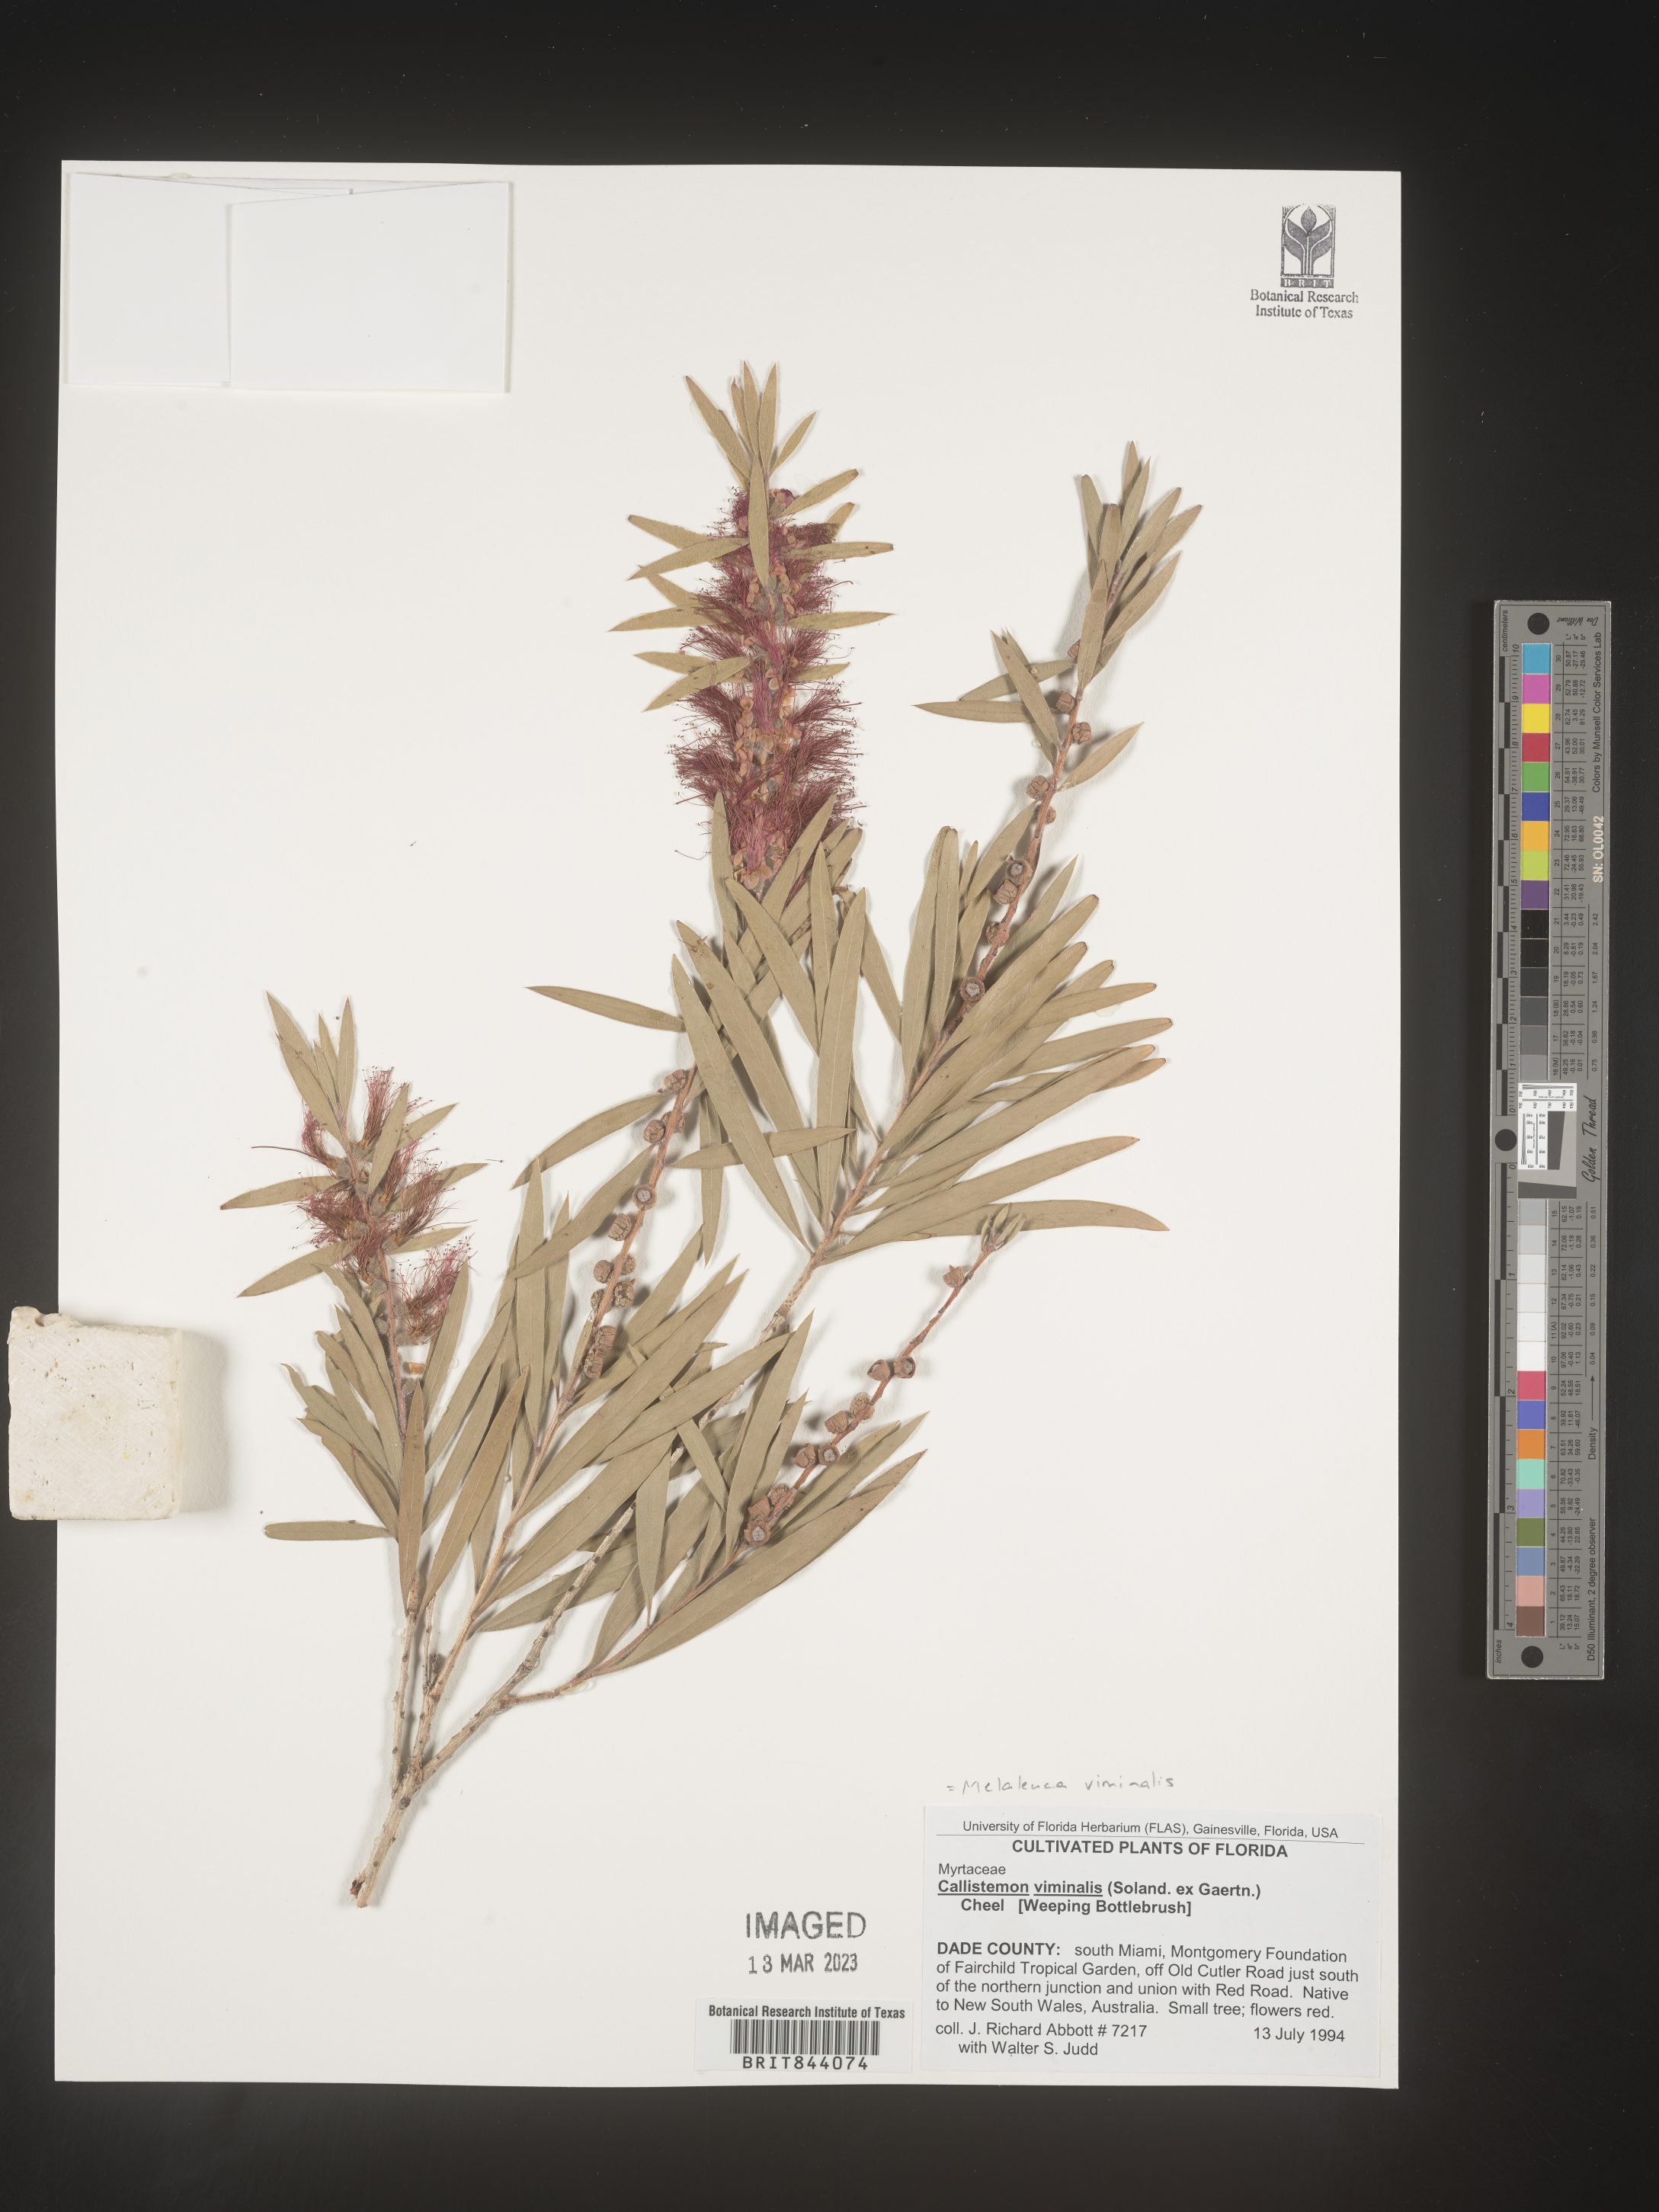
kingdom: Plantae
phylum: Tracheophyta
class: Magnoliopsida
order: Myrtales
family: Myrtaceae
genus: Callistemon
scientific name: Callistemon viminalis
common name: Drooping bottlebrush
